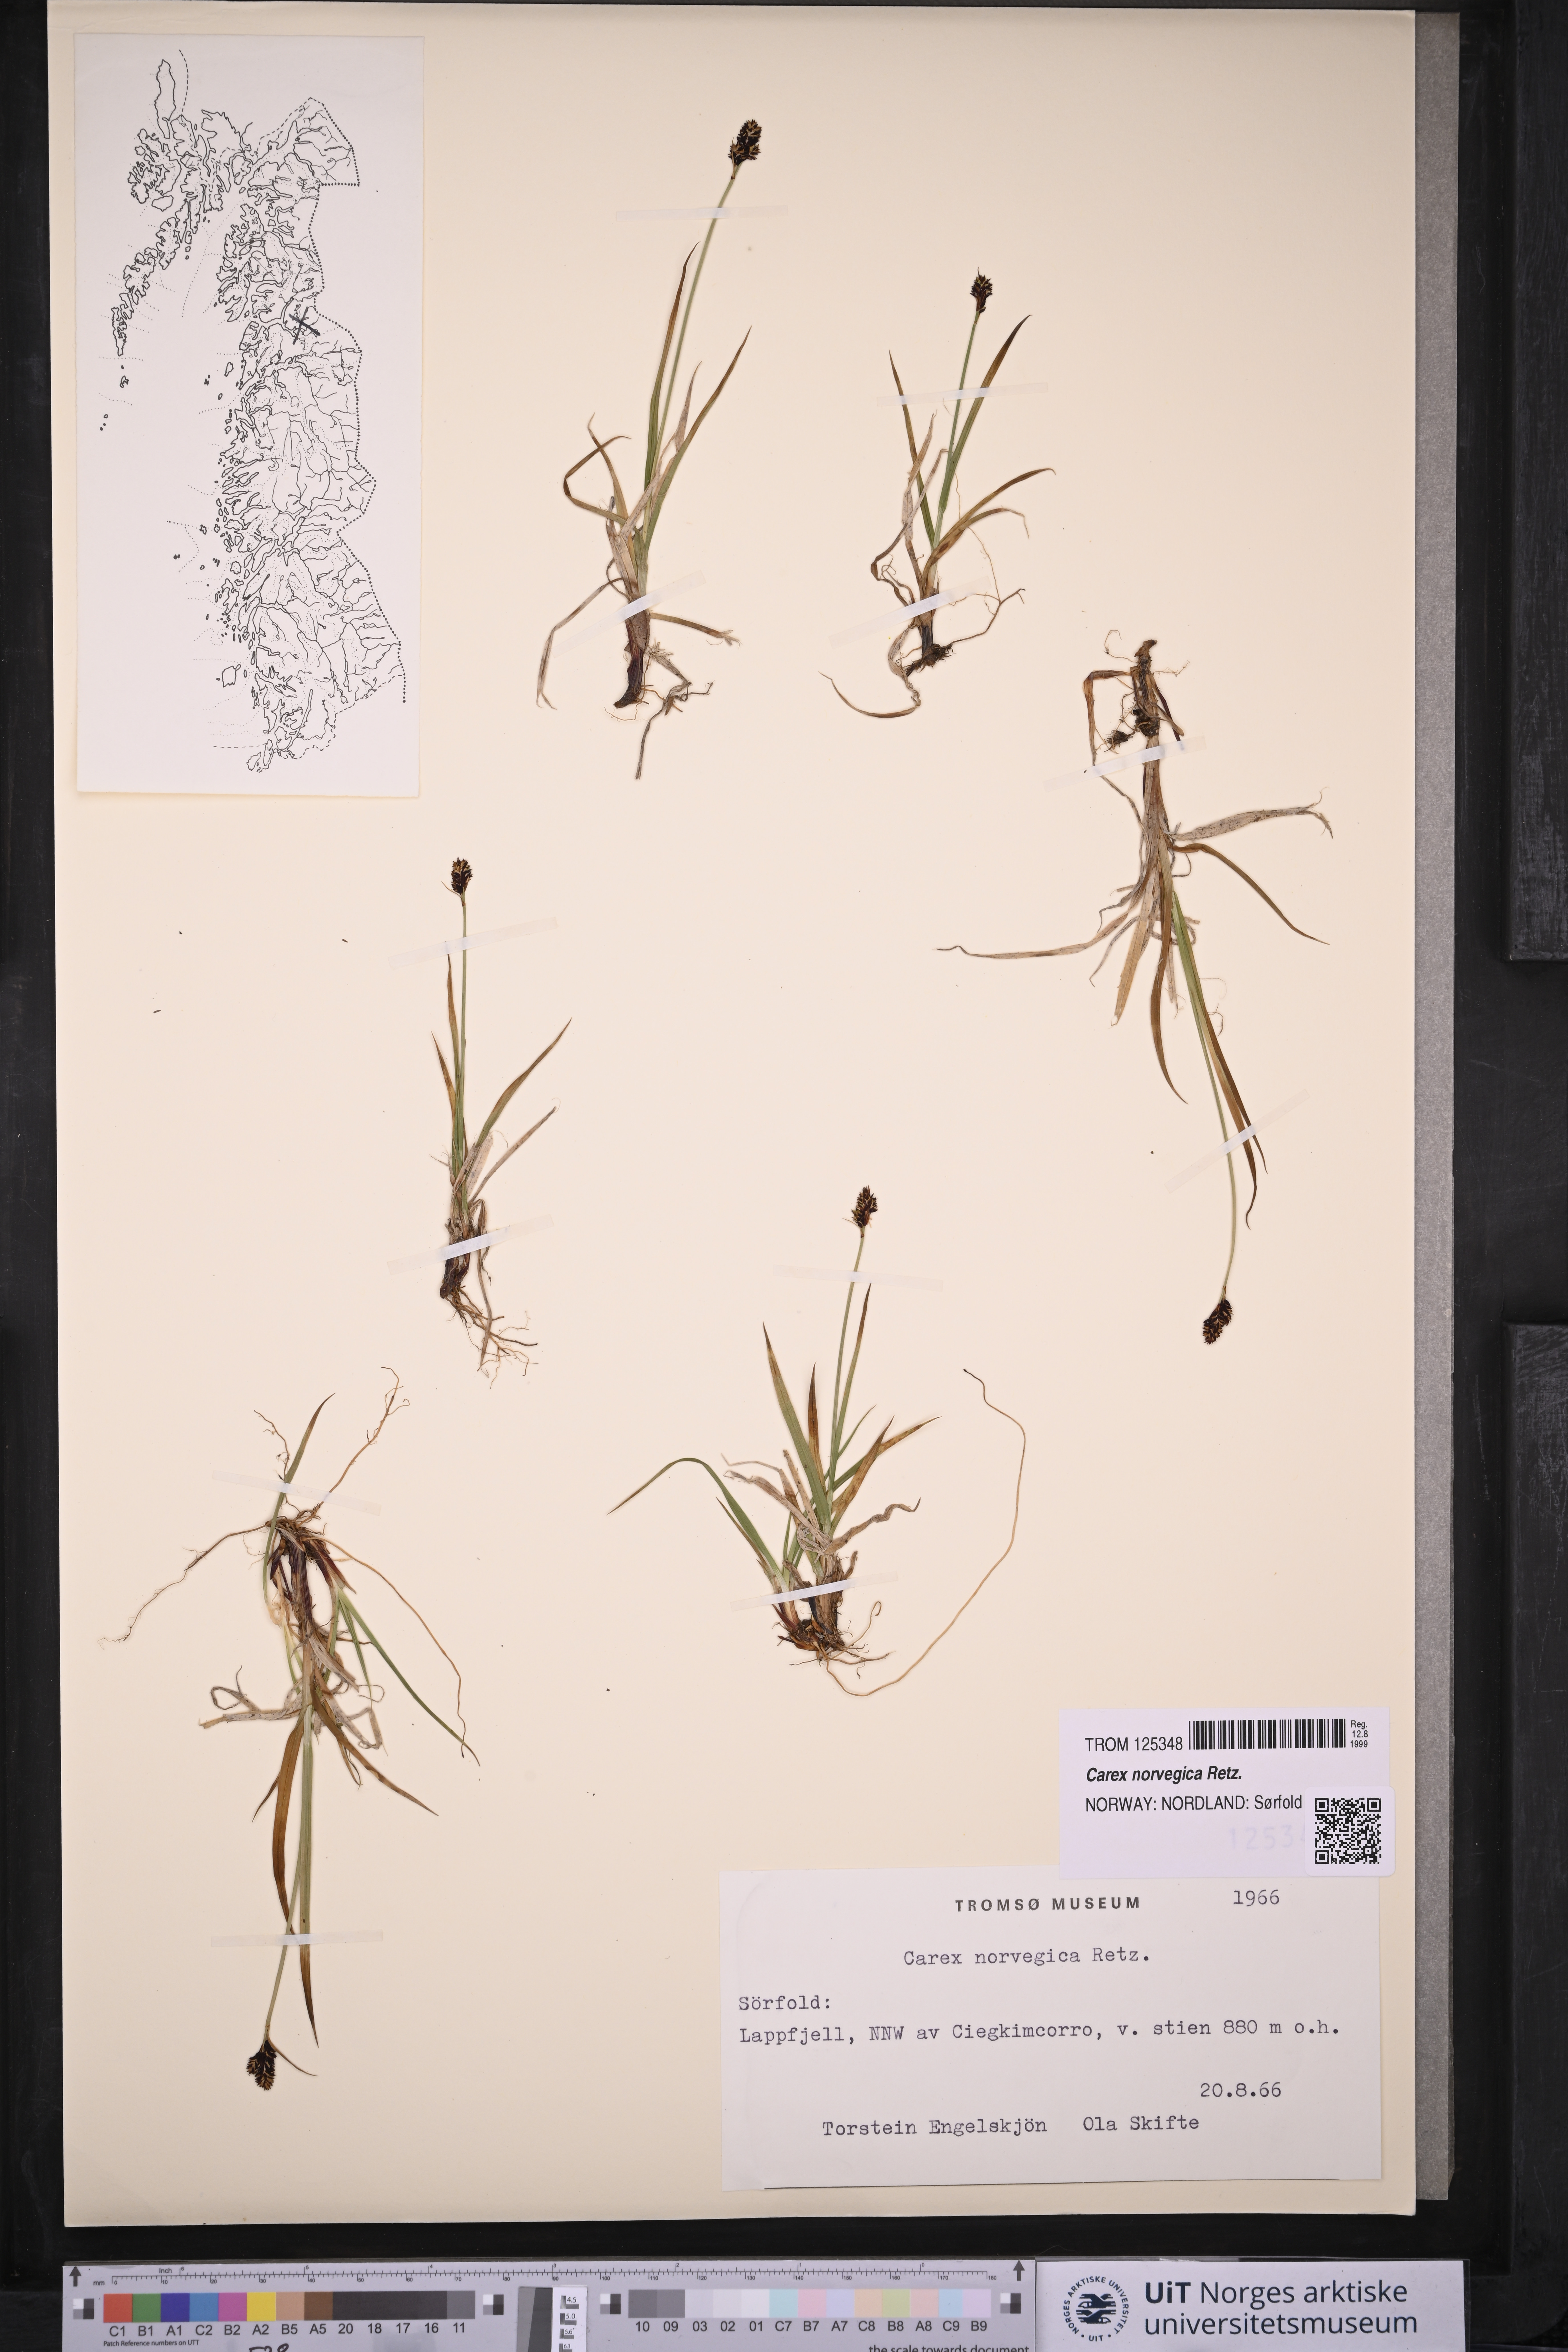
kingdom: Plantae
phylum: Tracheophyta
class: Liliopsida
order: Poales
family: Cyperaceae
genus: Carex
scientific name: Carex norvegica
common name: Close-headed alpine-sedge
